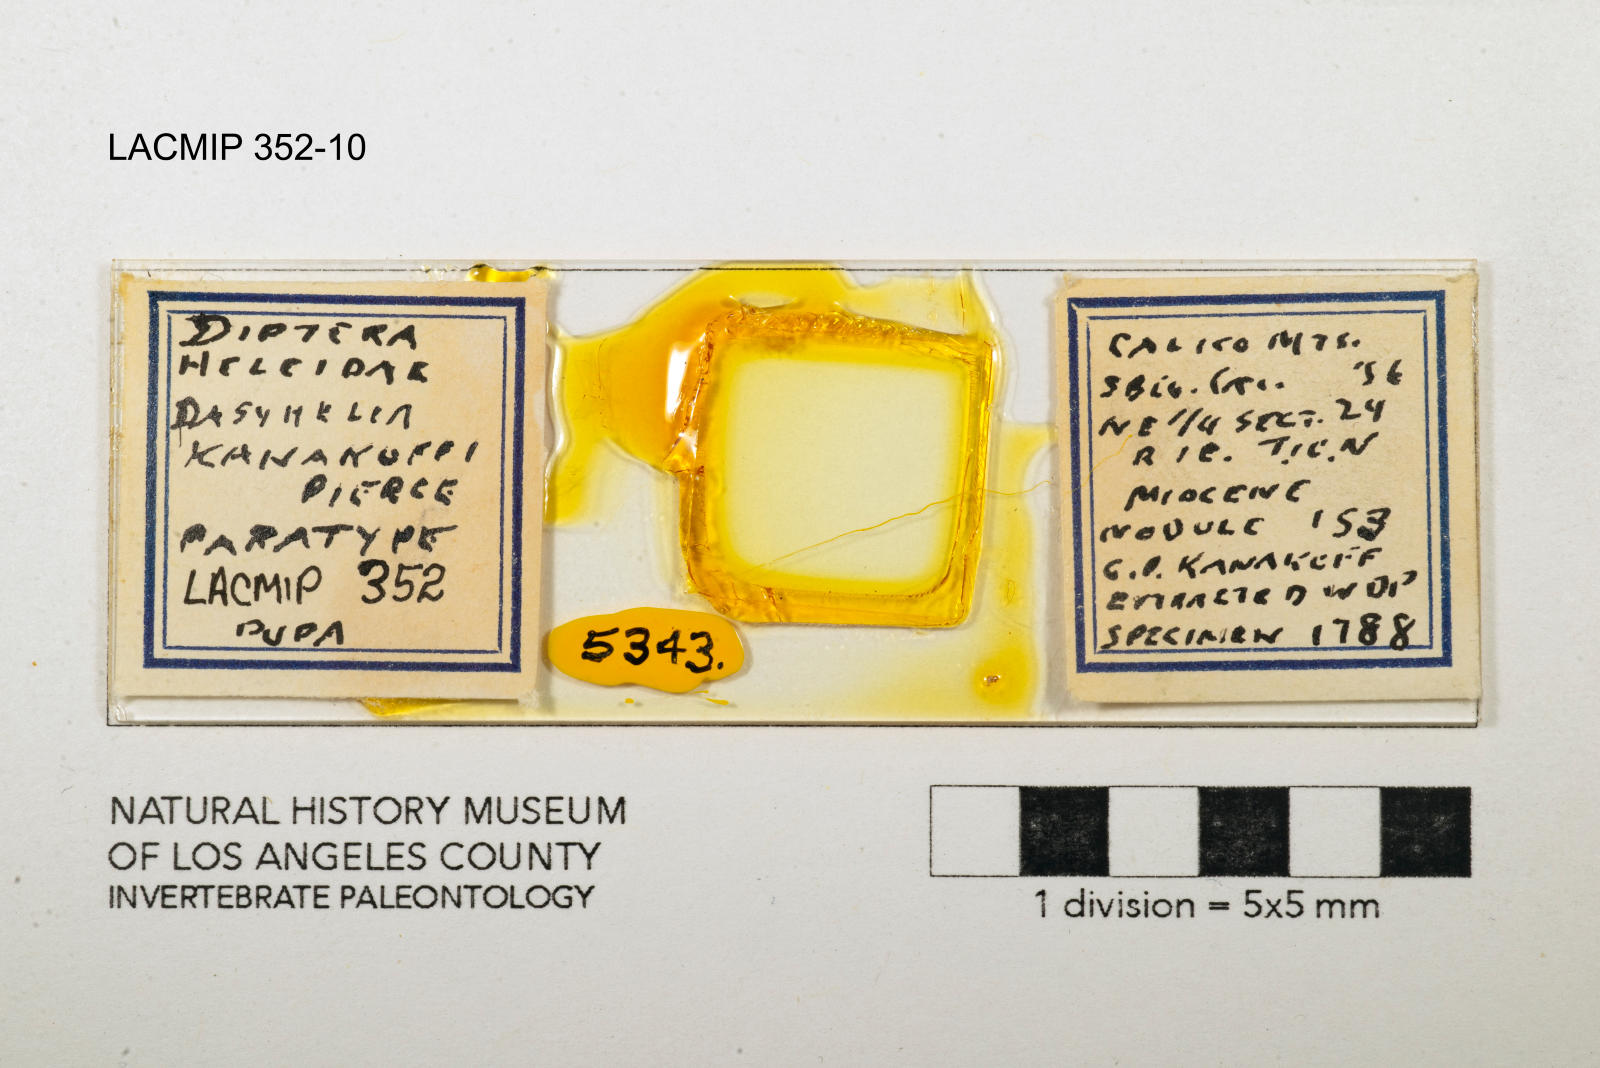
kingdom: Animalia
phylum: Arthropoda
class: Insecta
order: Diptera
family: Ceratopogonidae
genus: Dasyhelea
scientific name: Dasyhelea kanakoffi
